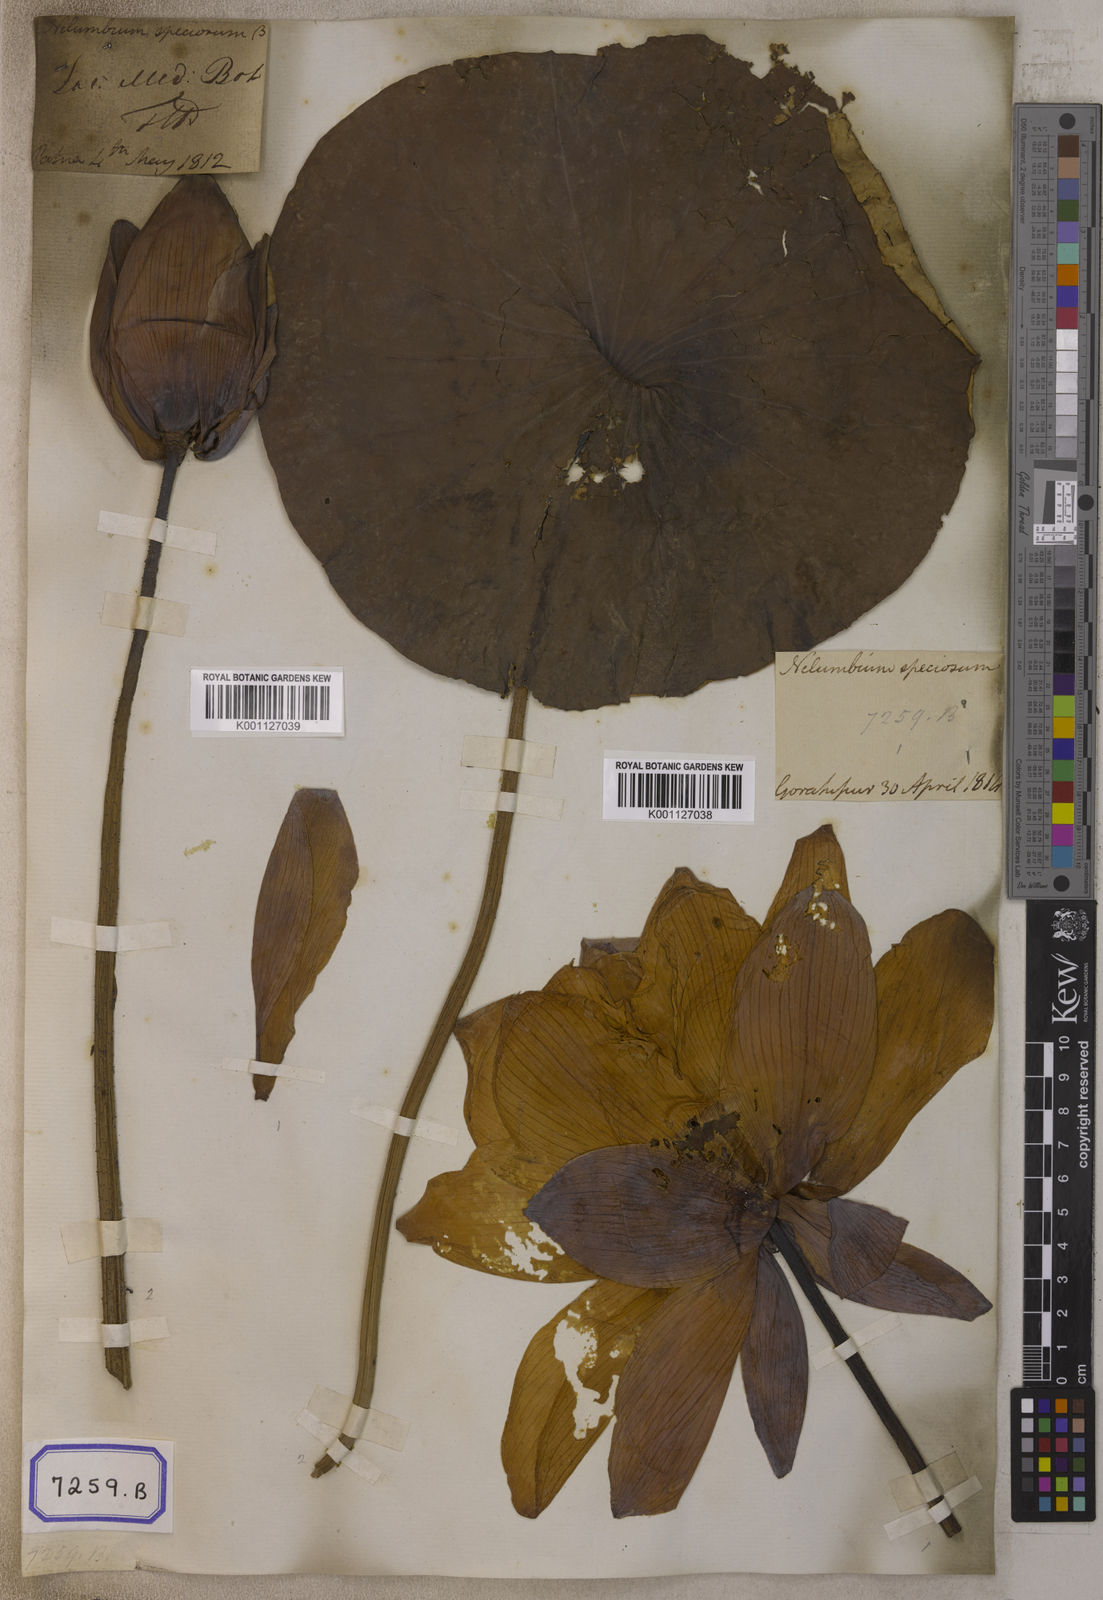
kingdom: Plantae
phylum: Tracheophyta
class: Magnoliopsida
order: Proteales
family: Nelumbonaceae
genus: Nelumbo
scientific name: Nelumbo nucifera
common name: Sacred lotus
